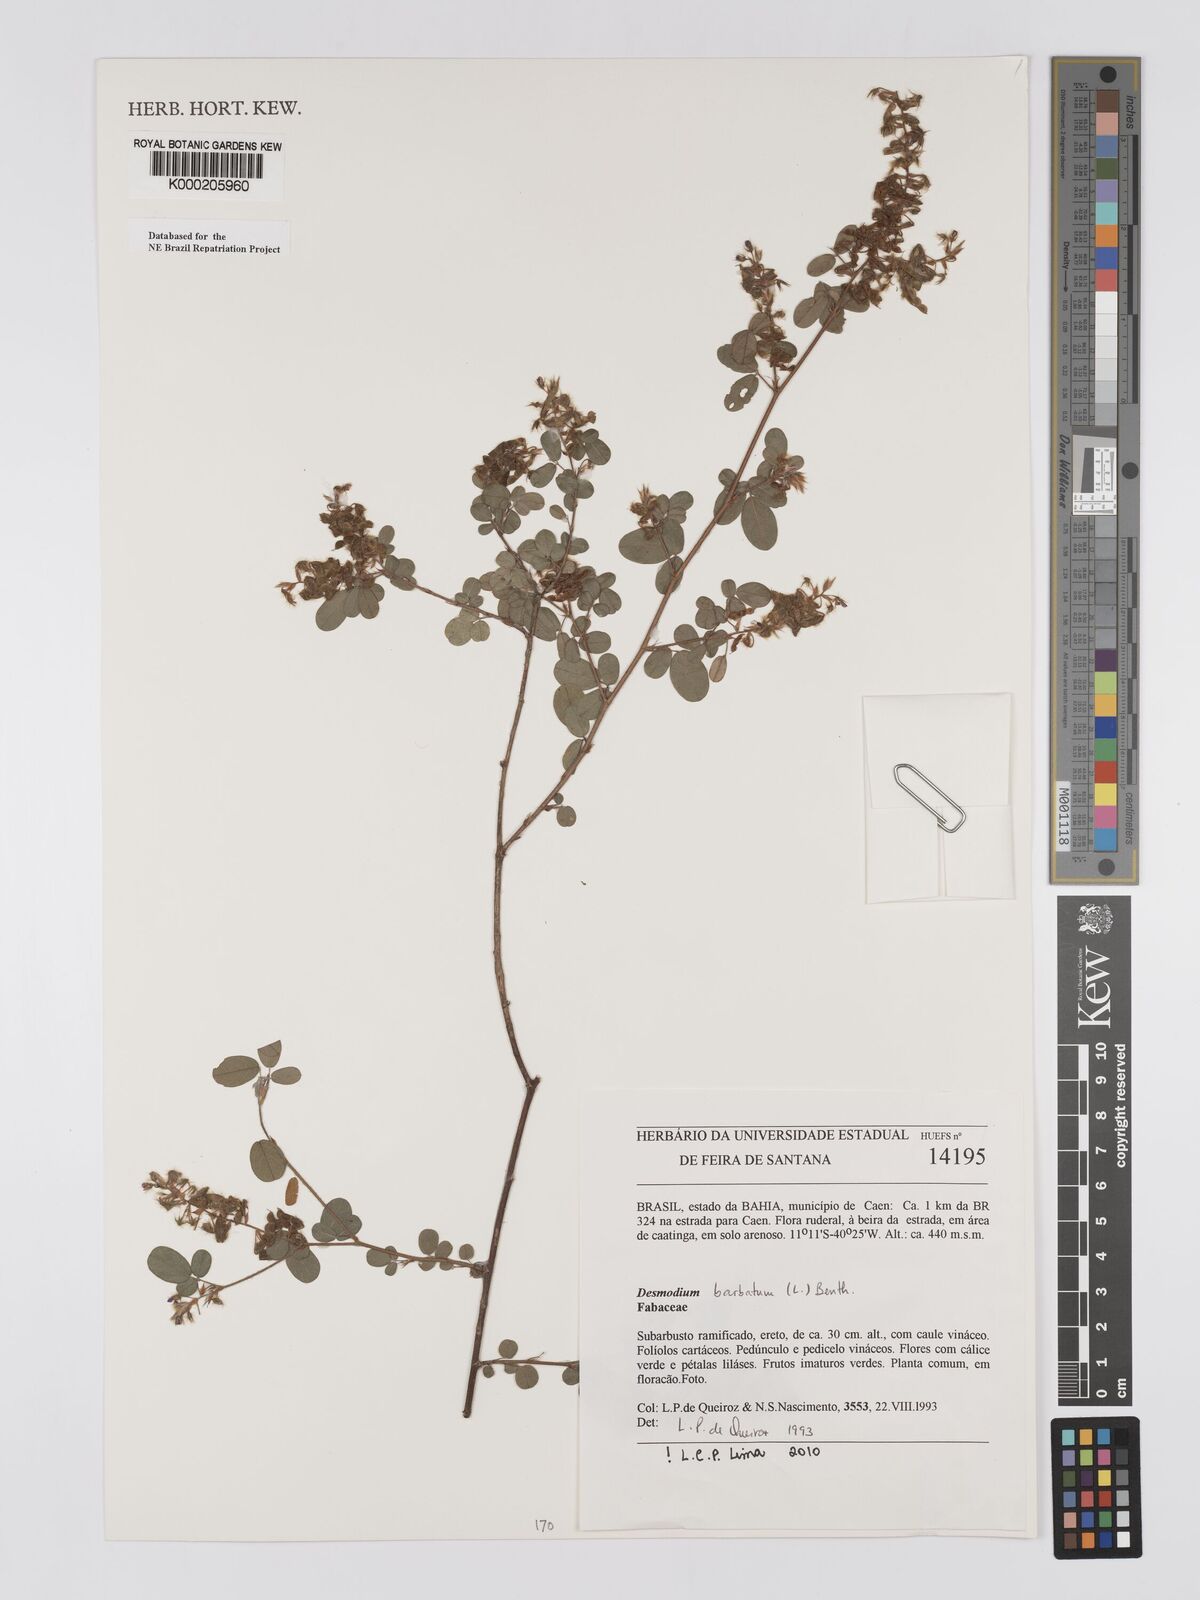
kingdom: Plantae
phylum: Tracheophyta
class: Magnoliopsida
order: Fabales
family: Fabaceae
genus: Grona
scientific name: Grona barbata
